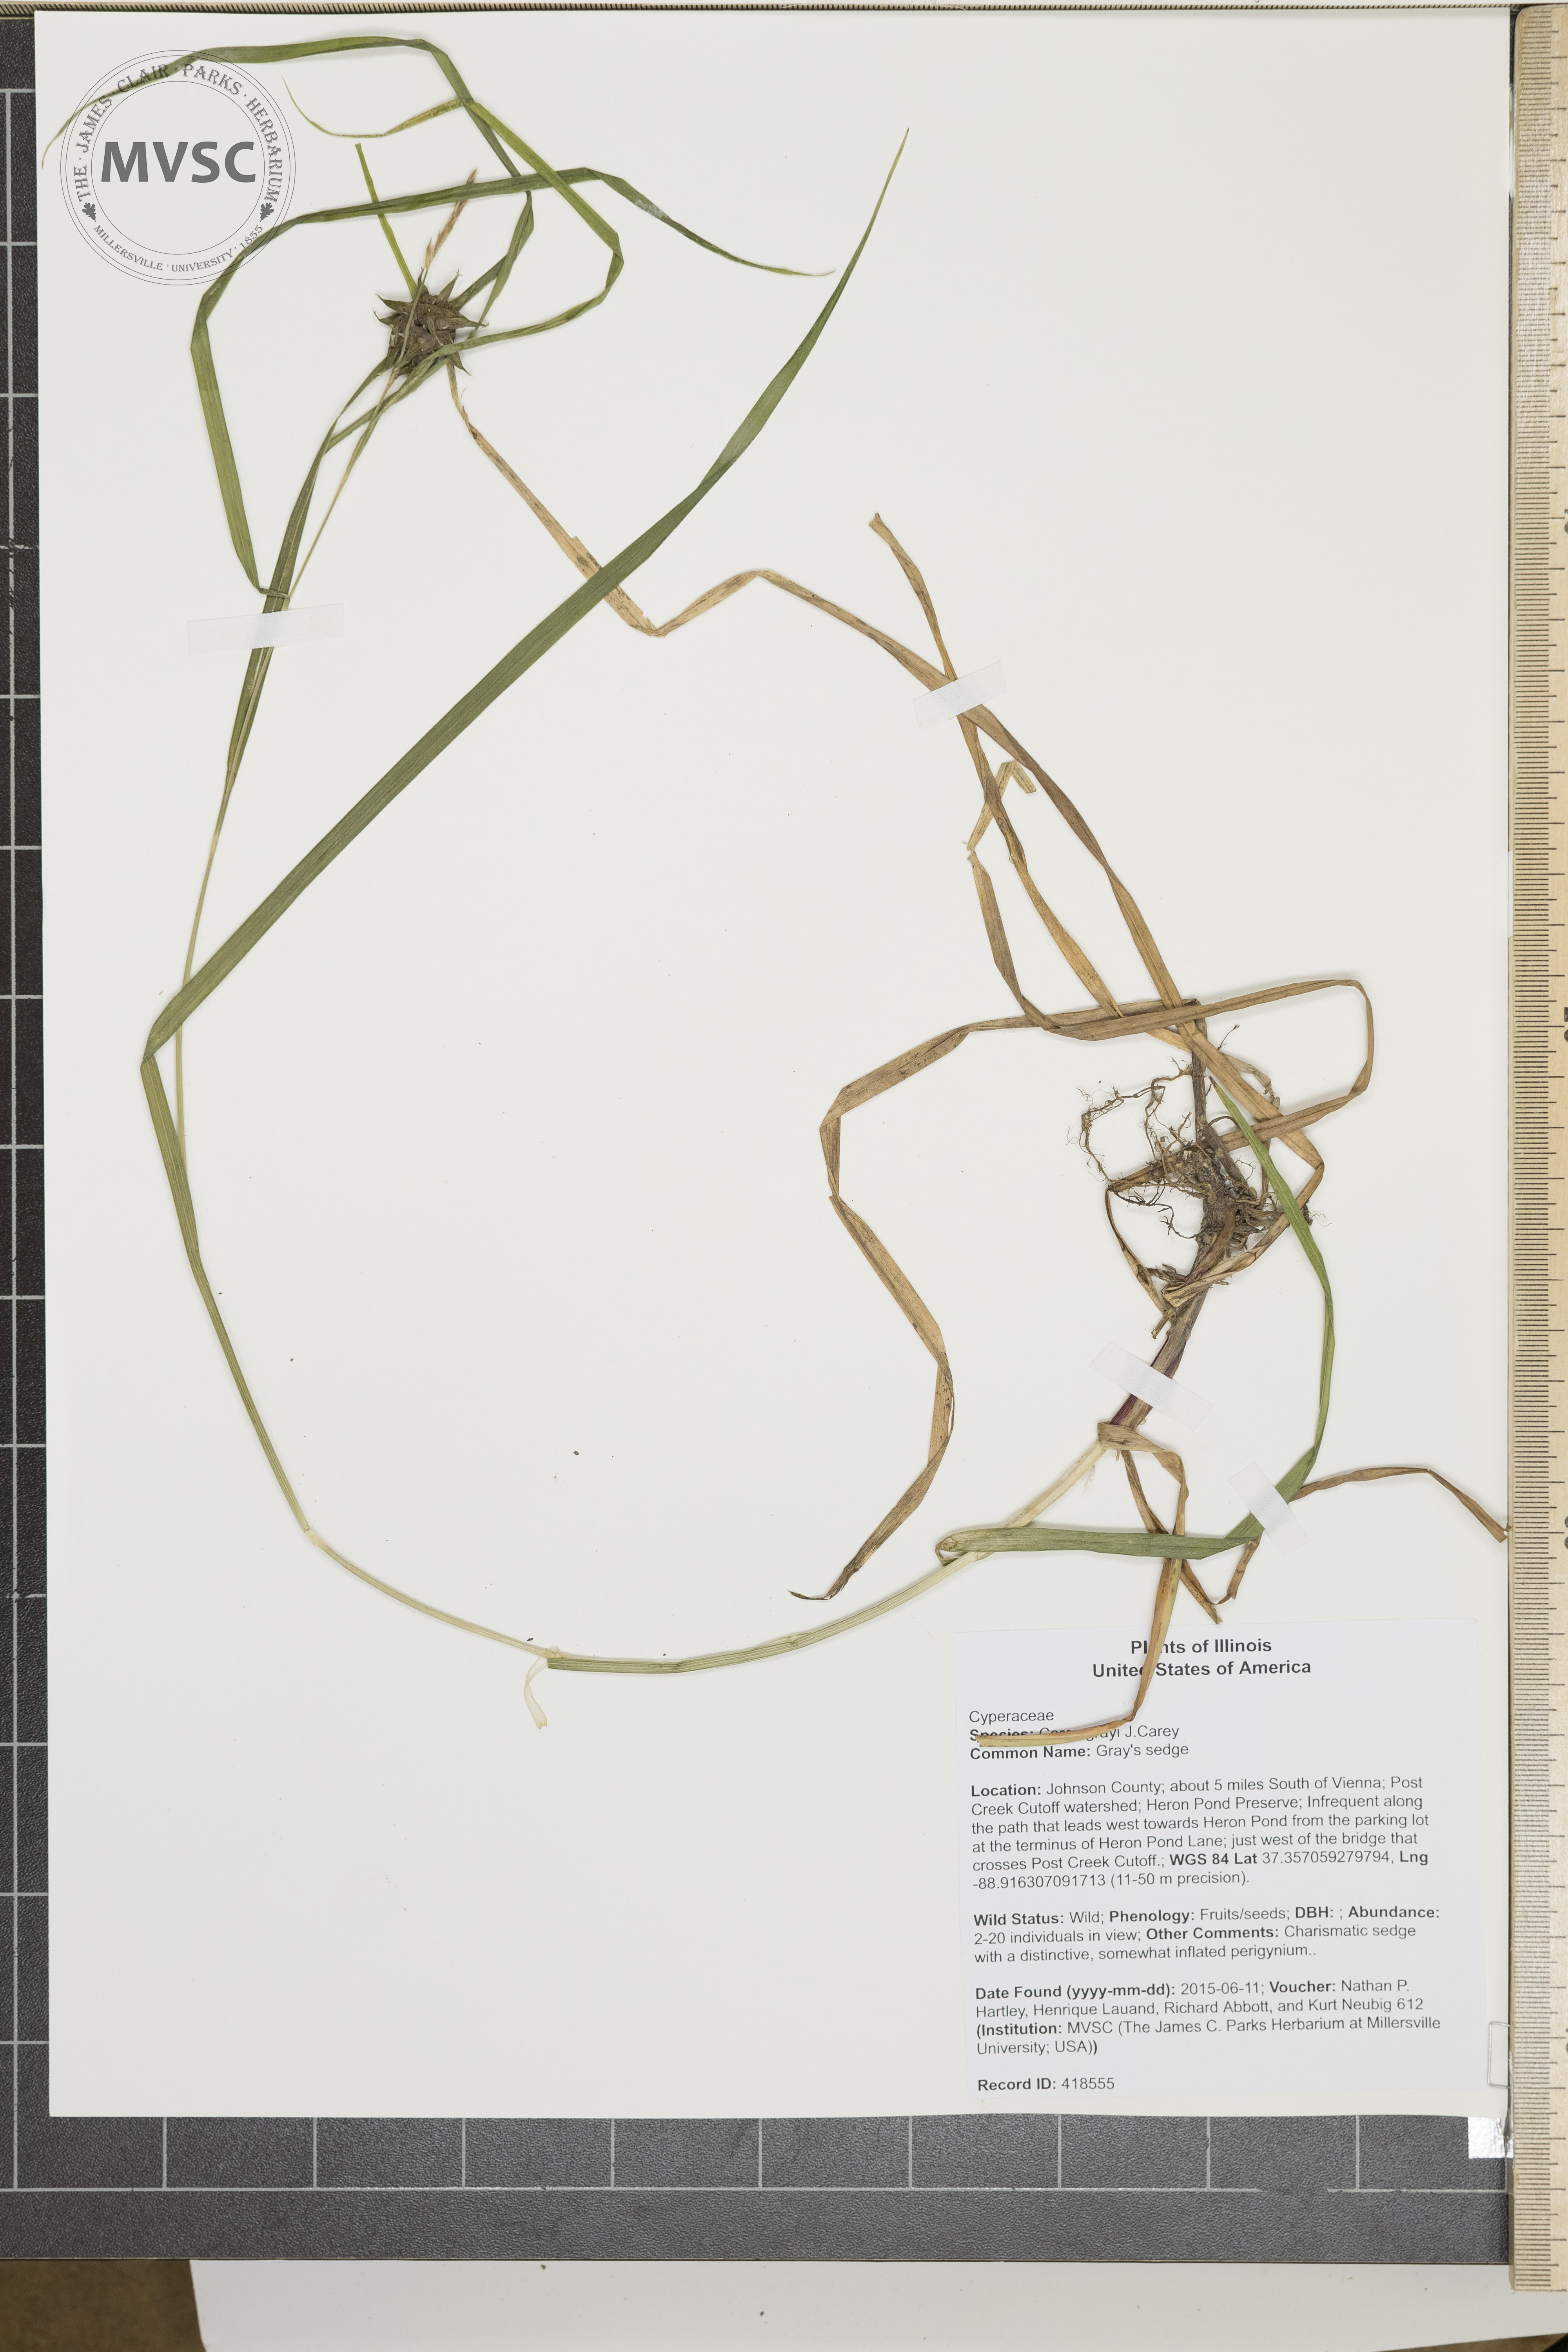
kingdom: Plantae
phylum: Tracheophyta
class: Liliopsida
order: Poales
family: Cyperaceae
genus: Carex
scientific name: Carex grayi
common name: Gray's sedge
